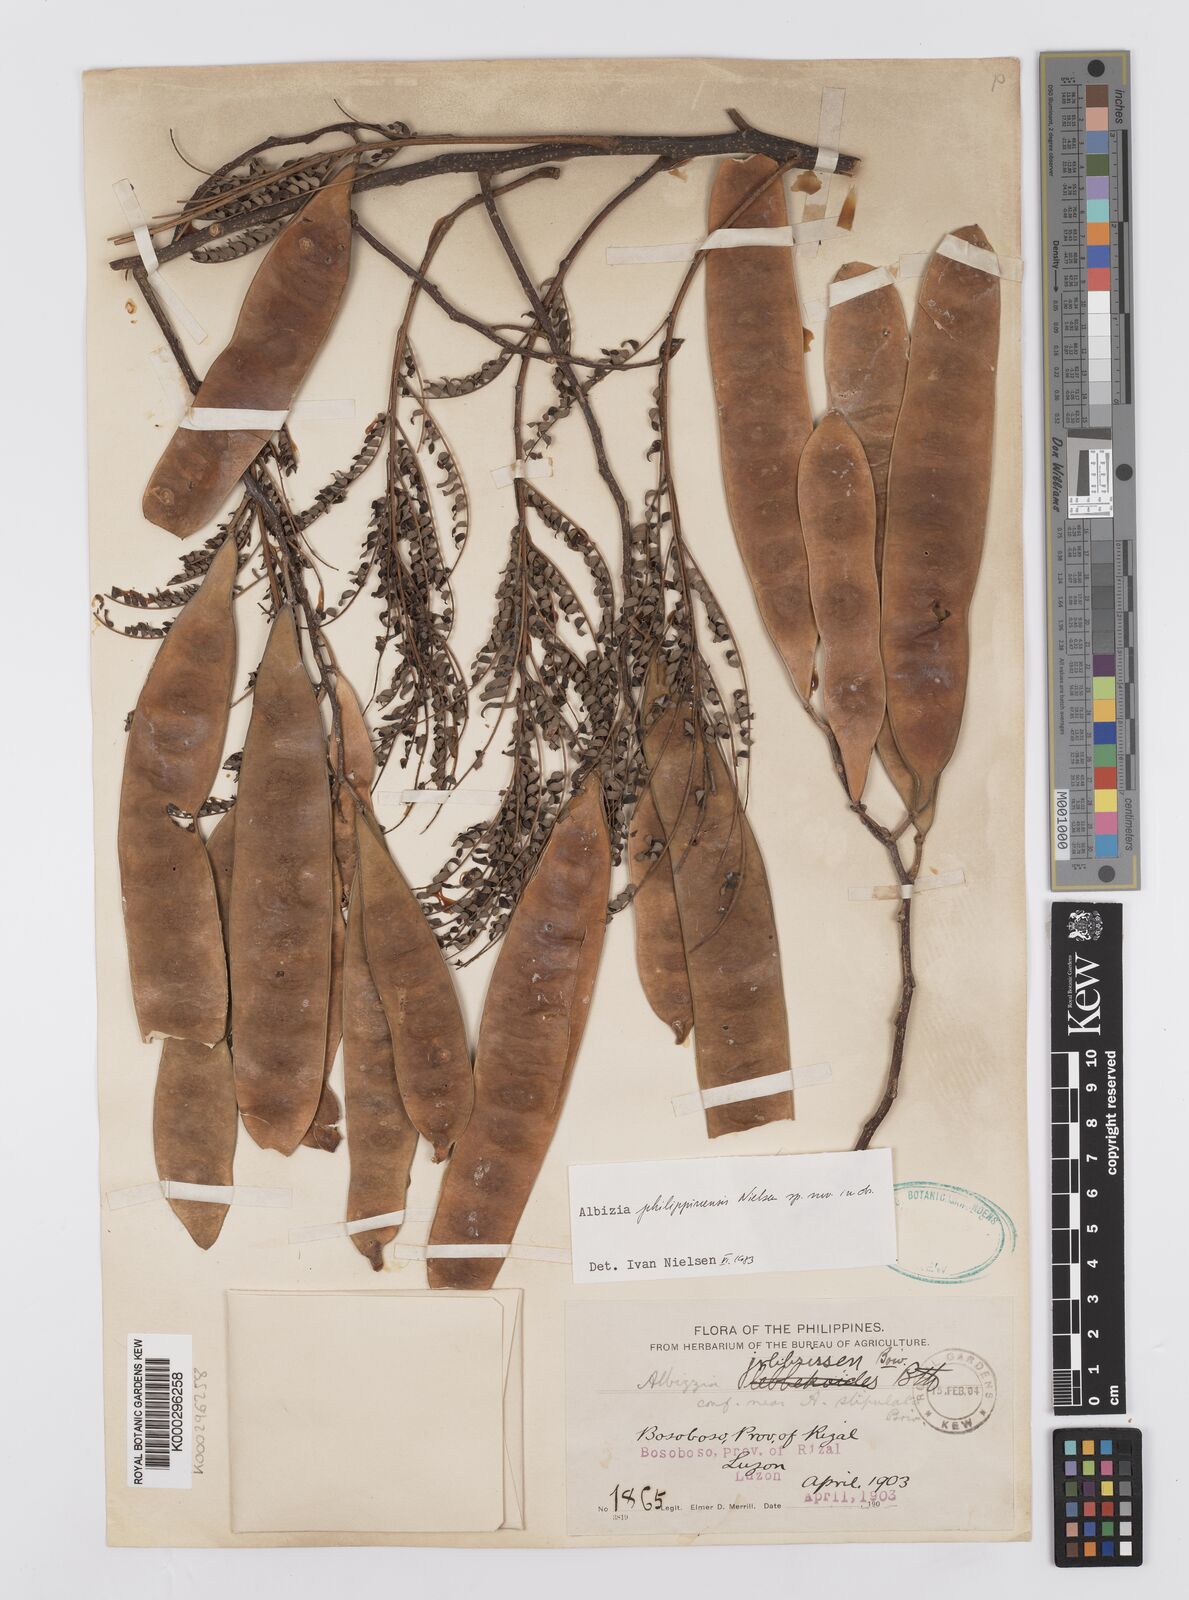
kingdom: Plantae
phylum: Tracheophyta
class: Magnoliopsida
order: Fabales
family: Fabaceae
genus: Albizia
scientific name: Albizia philippinensis
